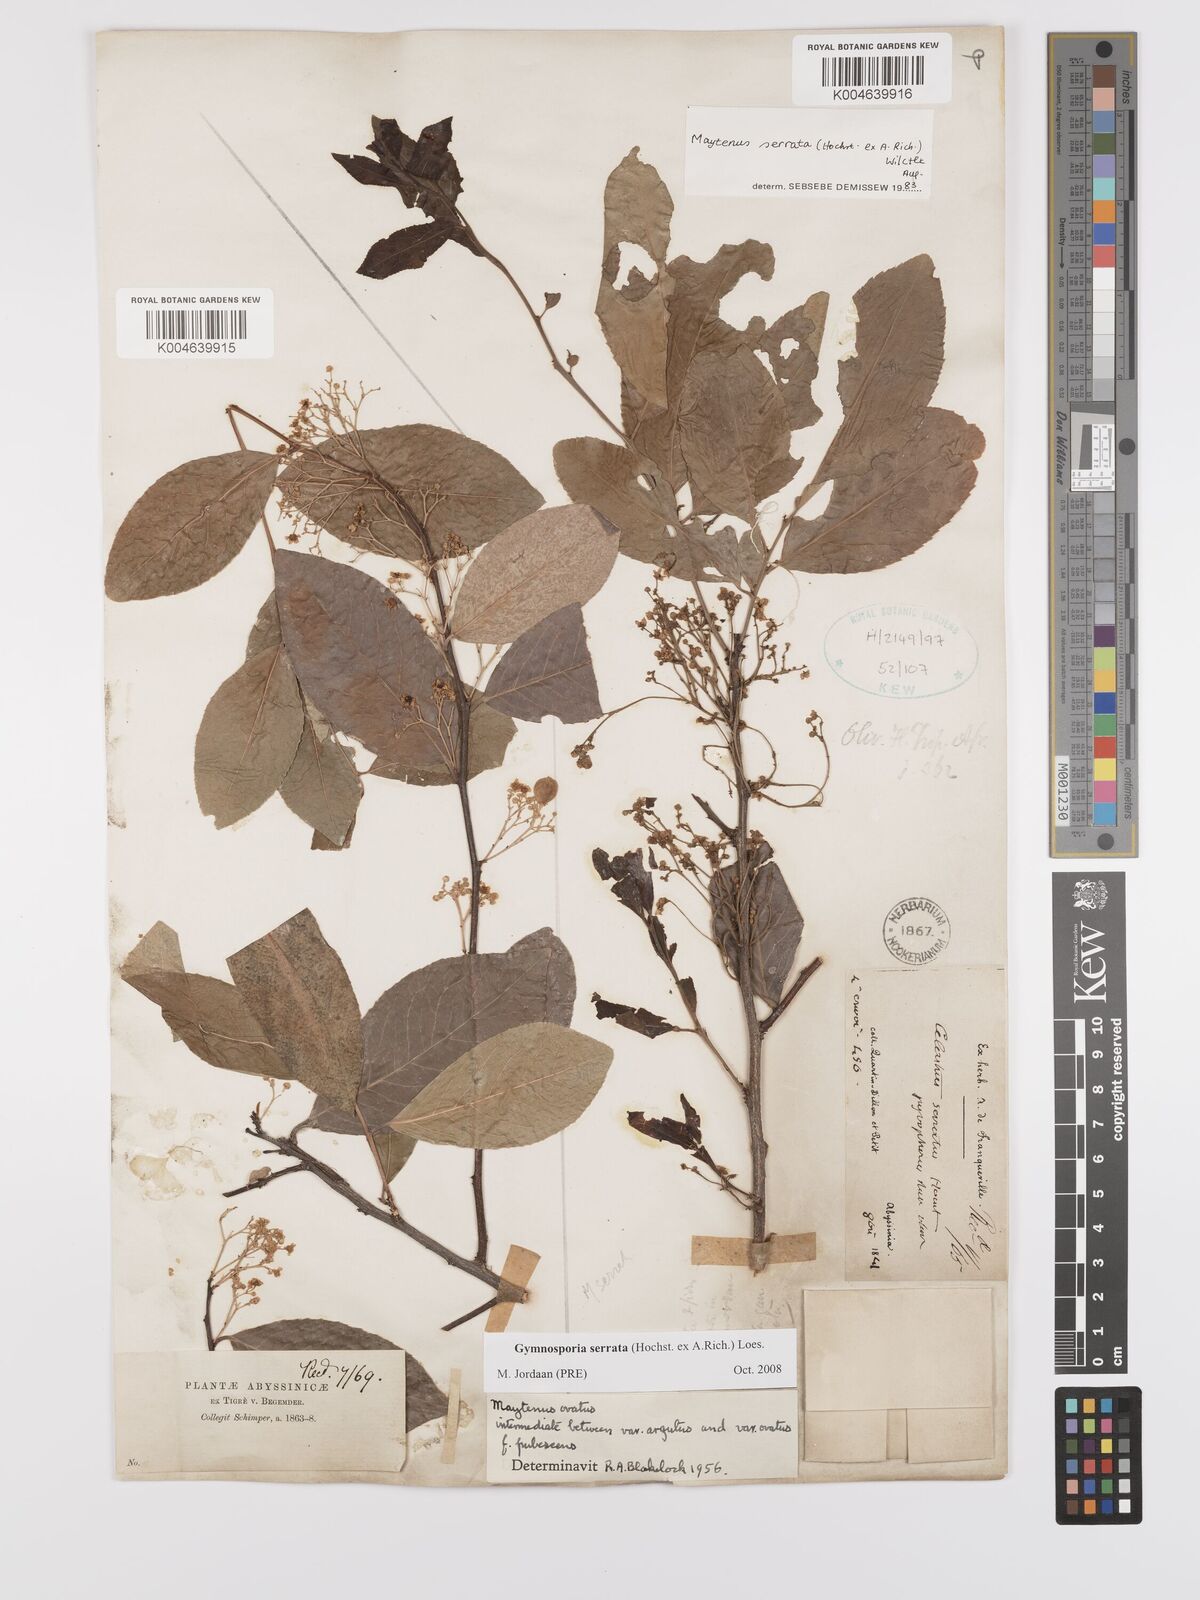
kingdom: Plantae
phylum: Tracheophyta
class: Magnoliopsida
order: Celastrales
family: Celastraceae
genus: Gymnosporia
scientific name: Gymnosporia serrata
